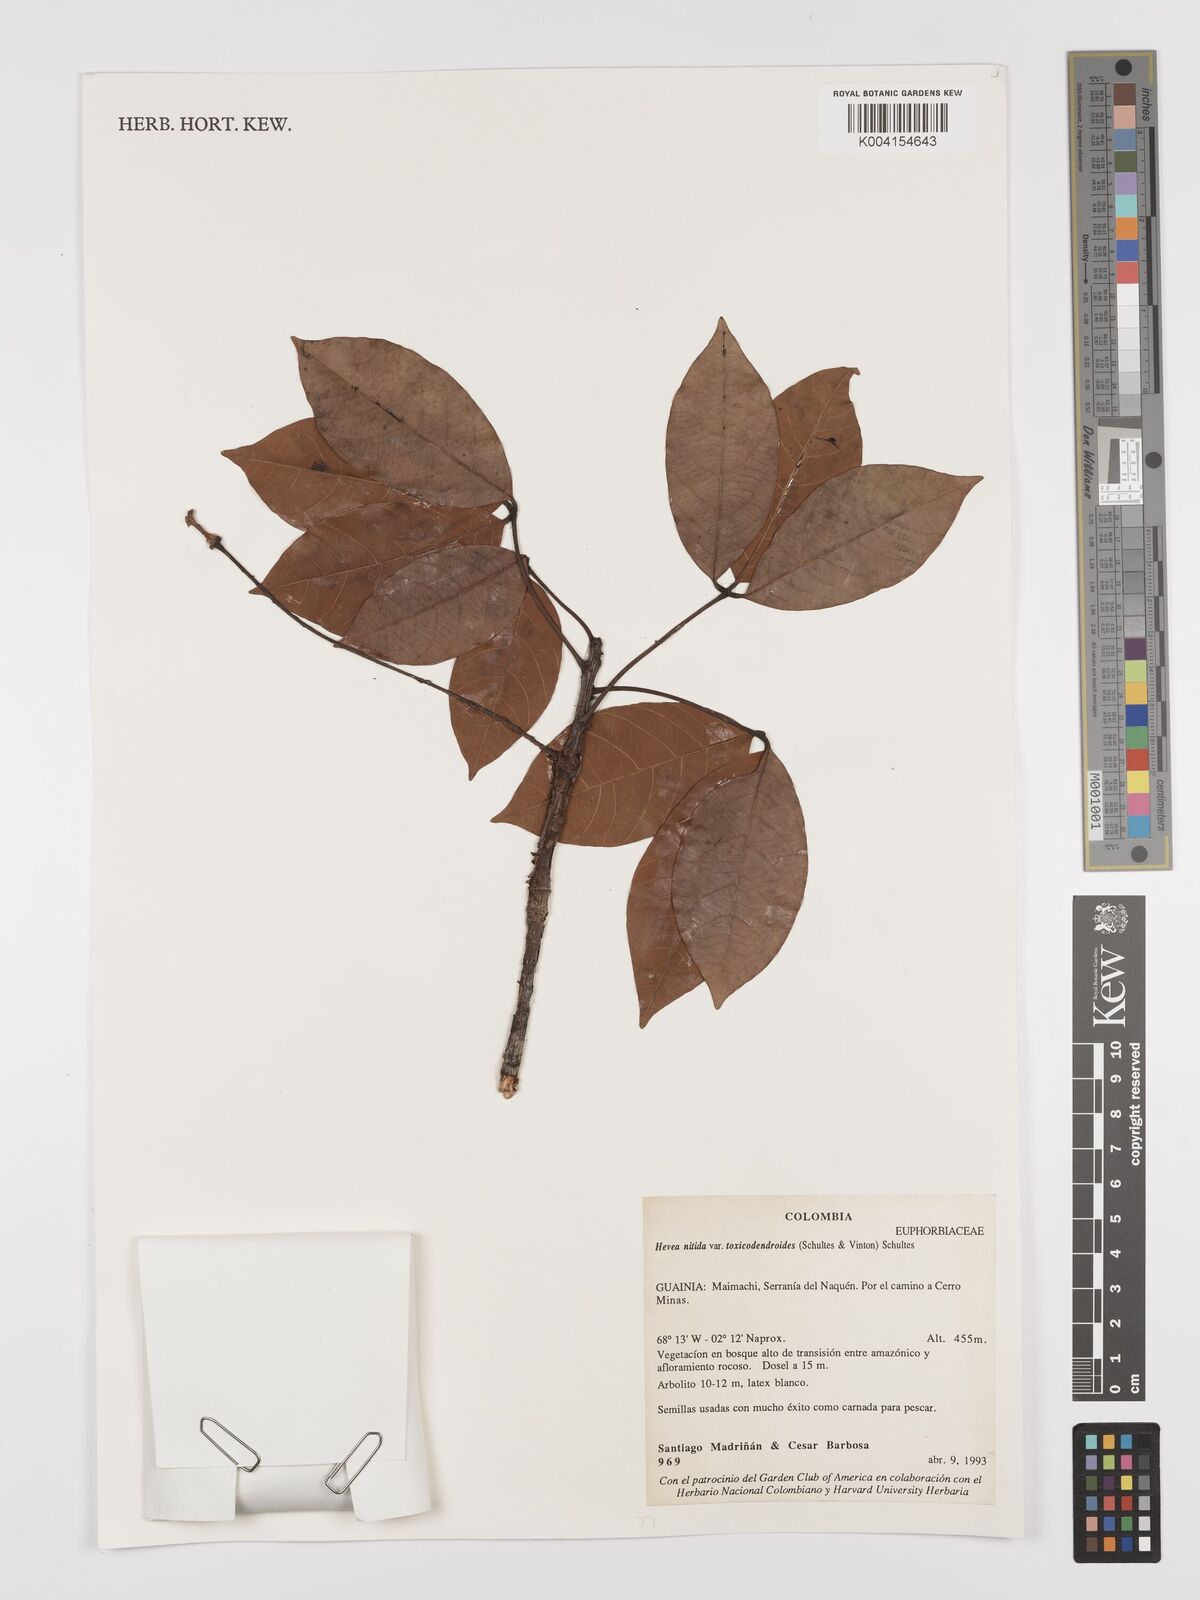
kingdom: Plantae
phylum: Tracheophyta
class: Magnoliopsida
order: Malpighiales
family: Euphorbiaceae
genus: Hevea
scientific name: Hevea nitida
